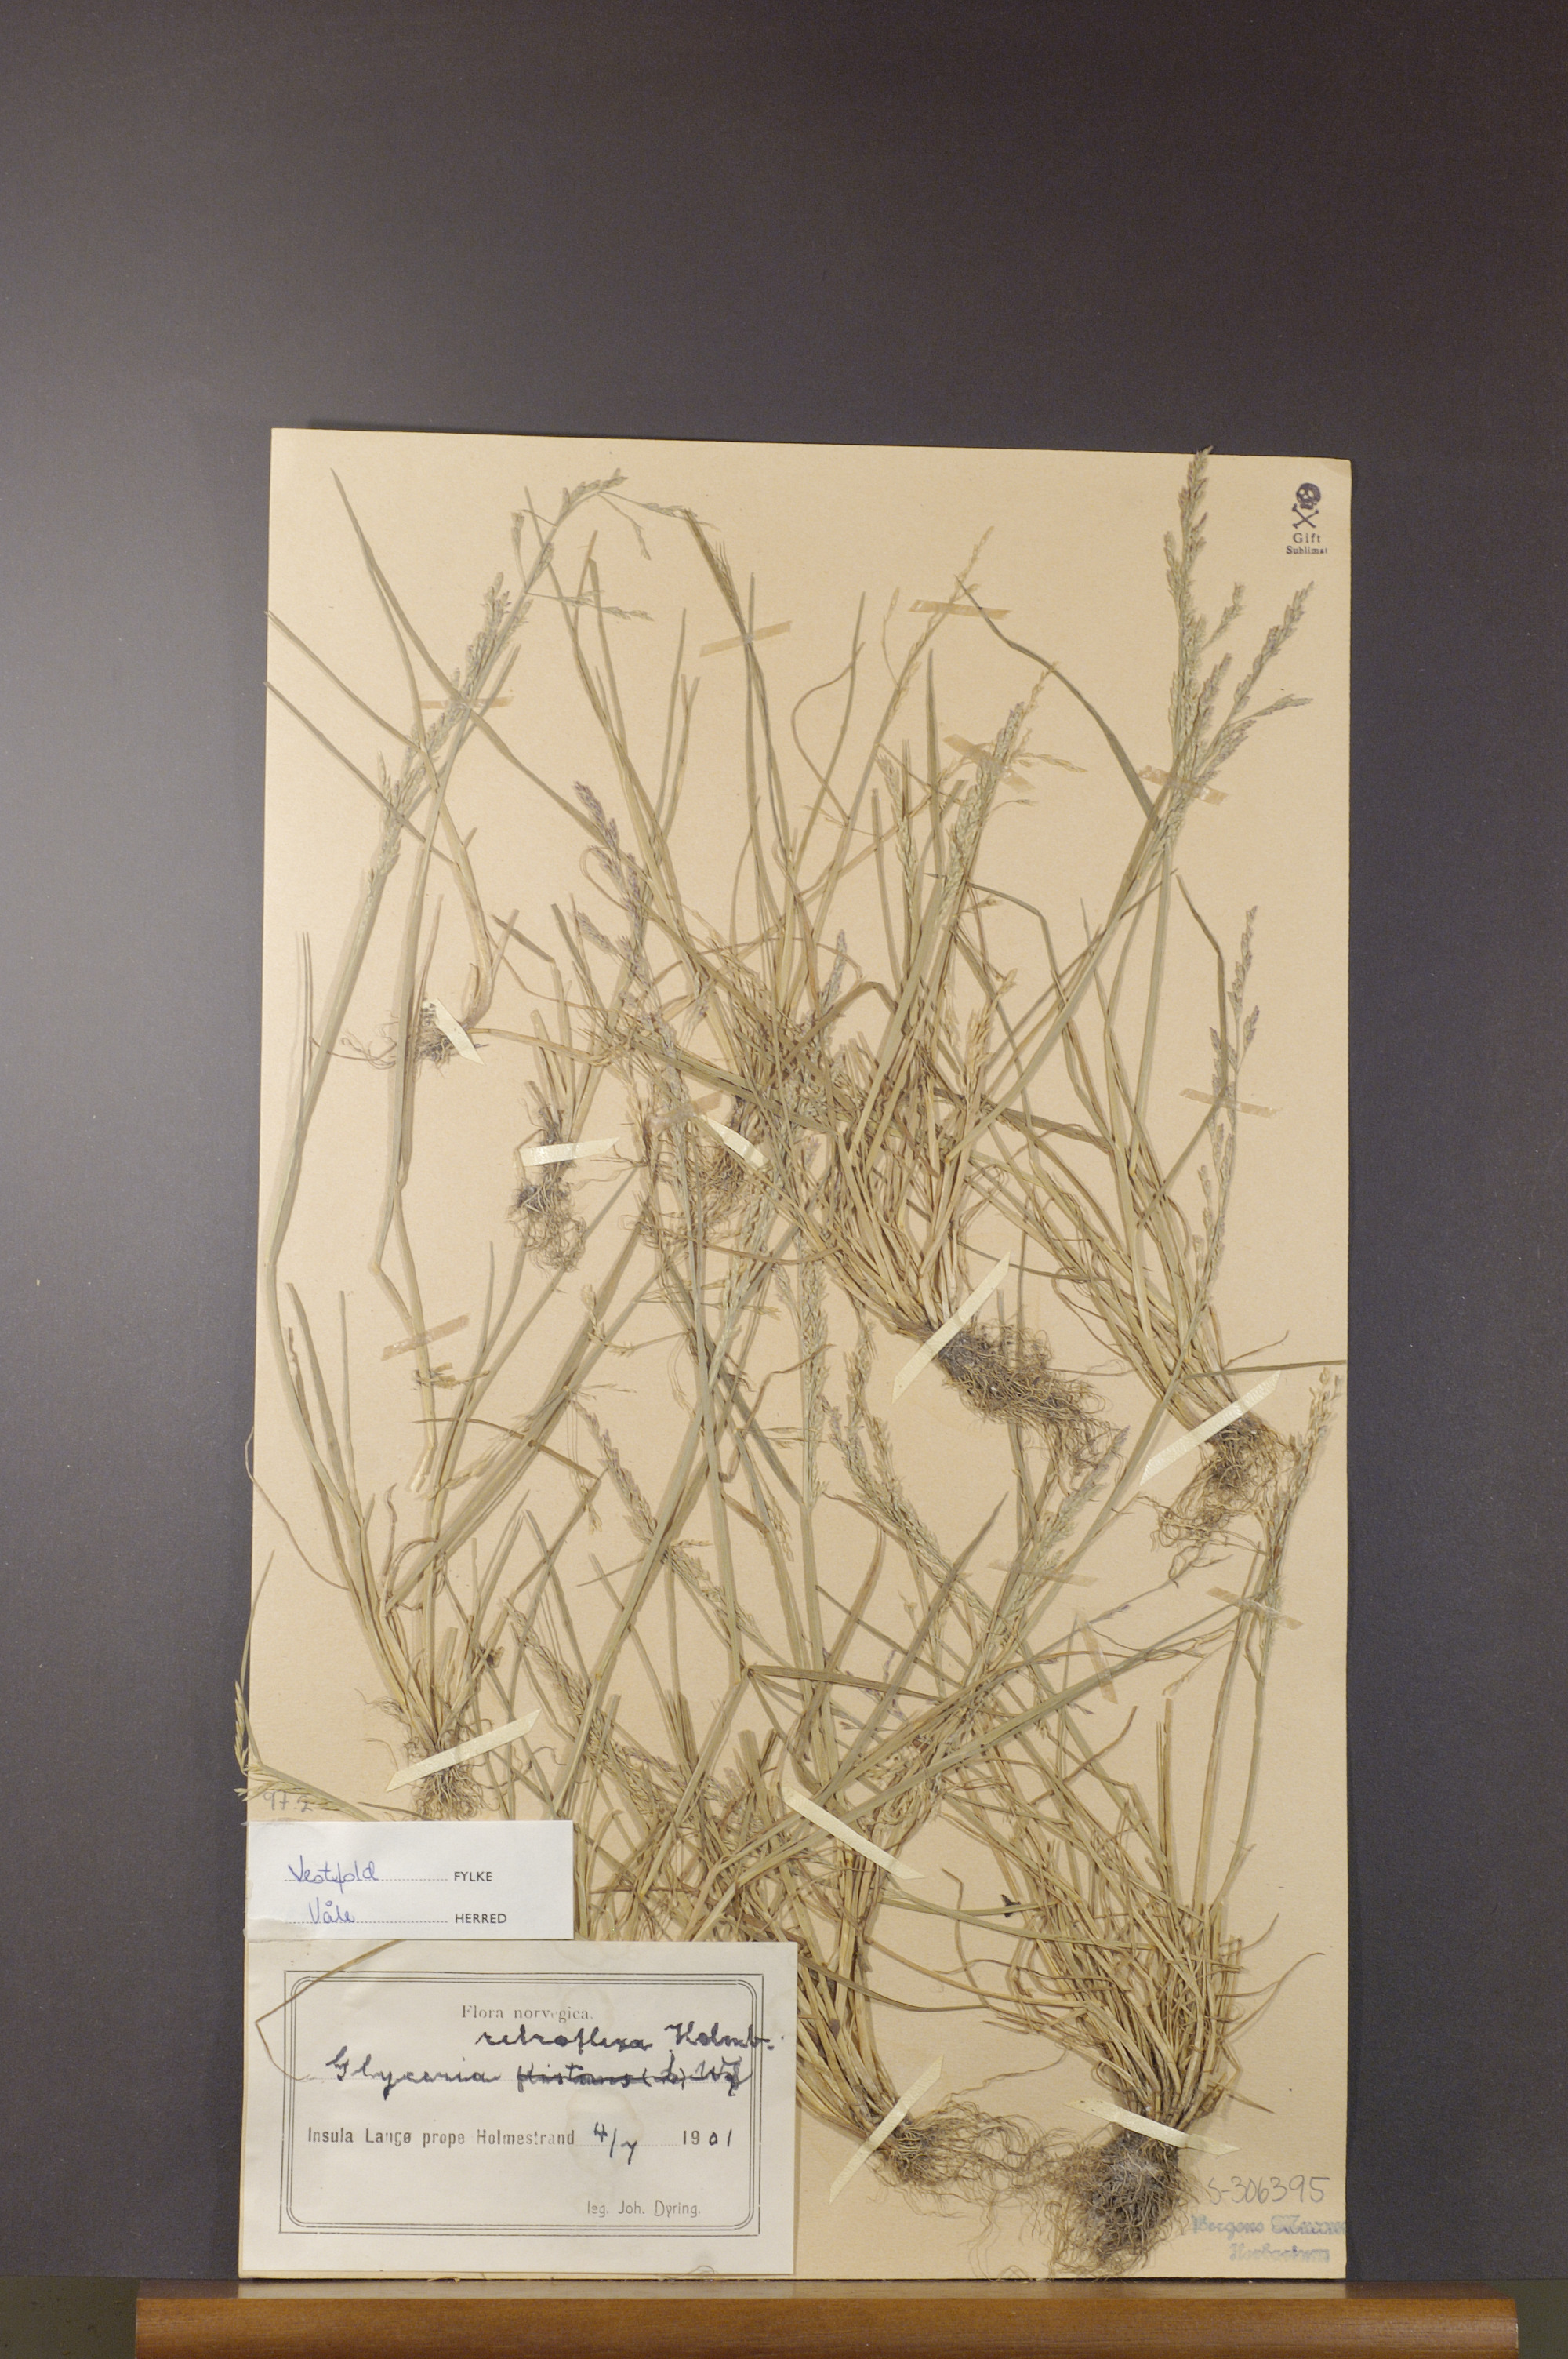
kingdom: Plantae
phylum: Tracheophyta
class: Liliopsida
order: Poales
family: Poaceae
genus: Puccinellia
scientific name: Puccinellia distans
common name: Weeping alkaligrass
